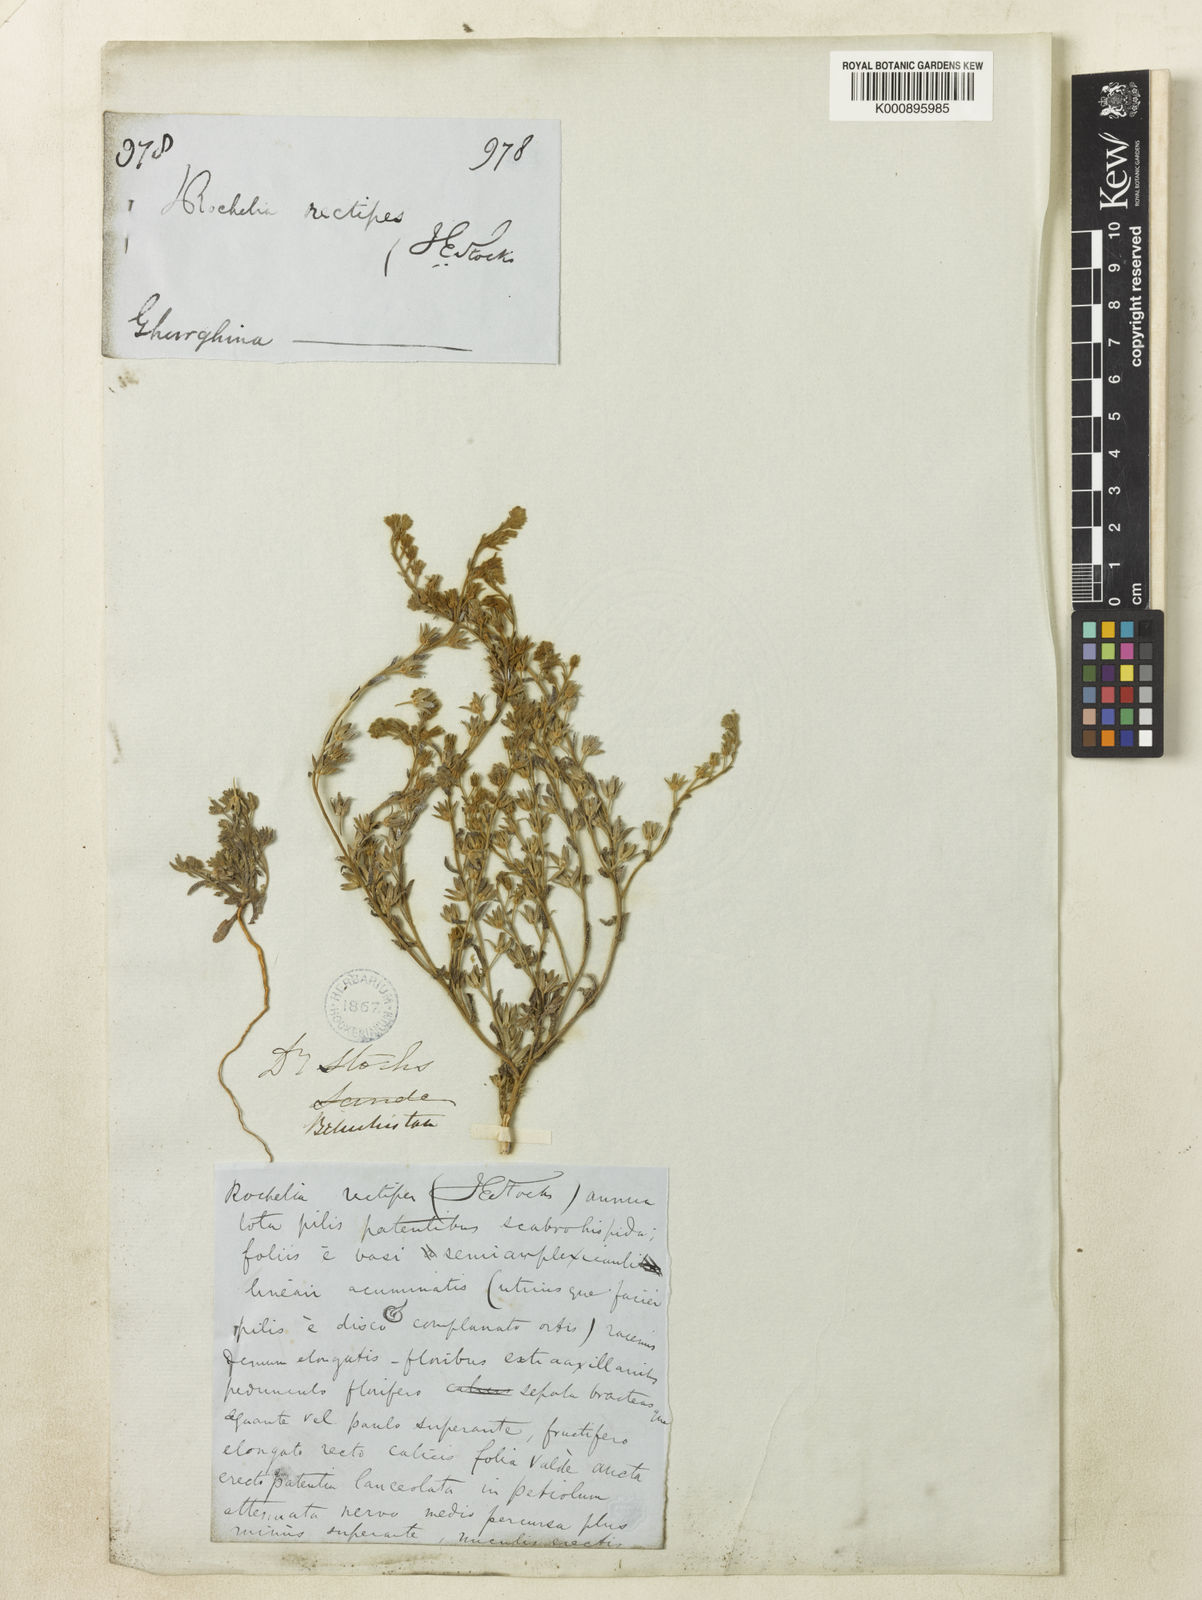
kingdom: Plantae
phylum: Tracheophyta
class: Magnoliopsida
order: Boraginales
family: Boraginaceae
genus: Rochelia
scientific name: Rochelia rectipes
